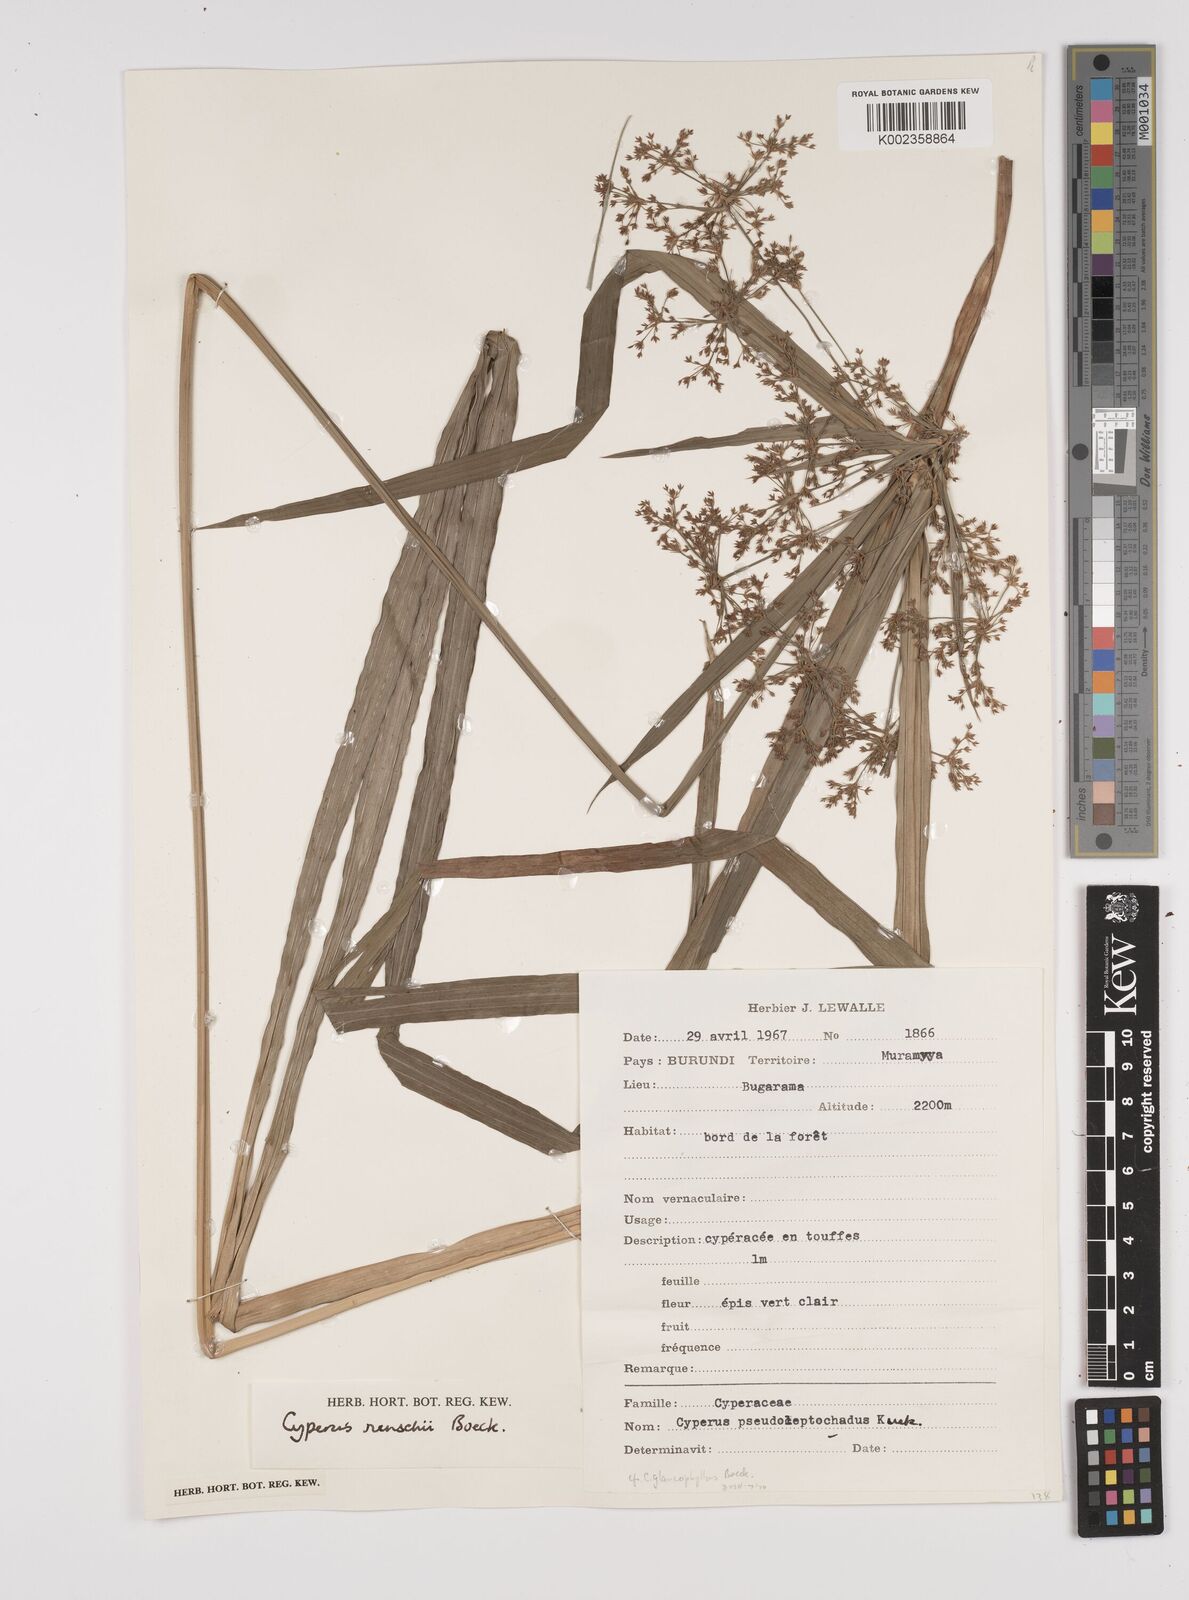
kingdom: Plantae
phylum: Tracheophyta
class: Liliopsida
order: Poales
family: Cyperaceae
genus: Cyperus
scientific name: Cyperus glaucophyllus
